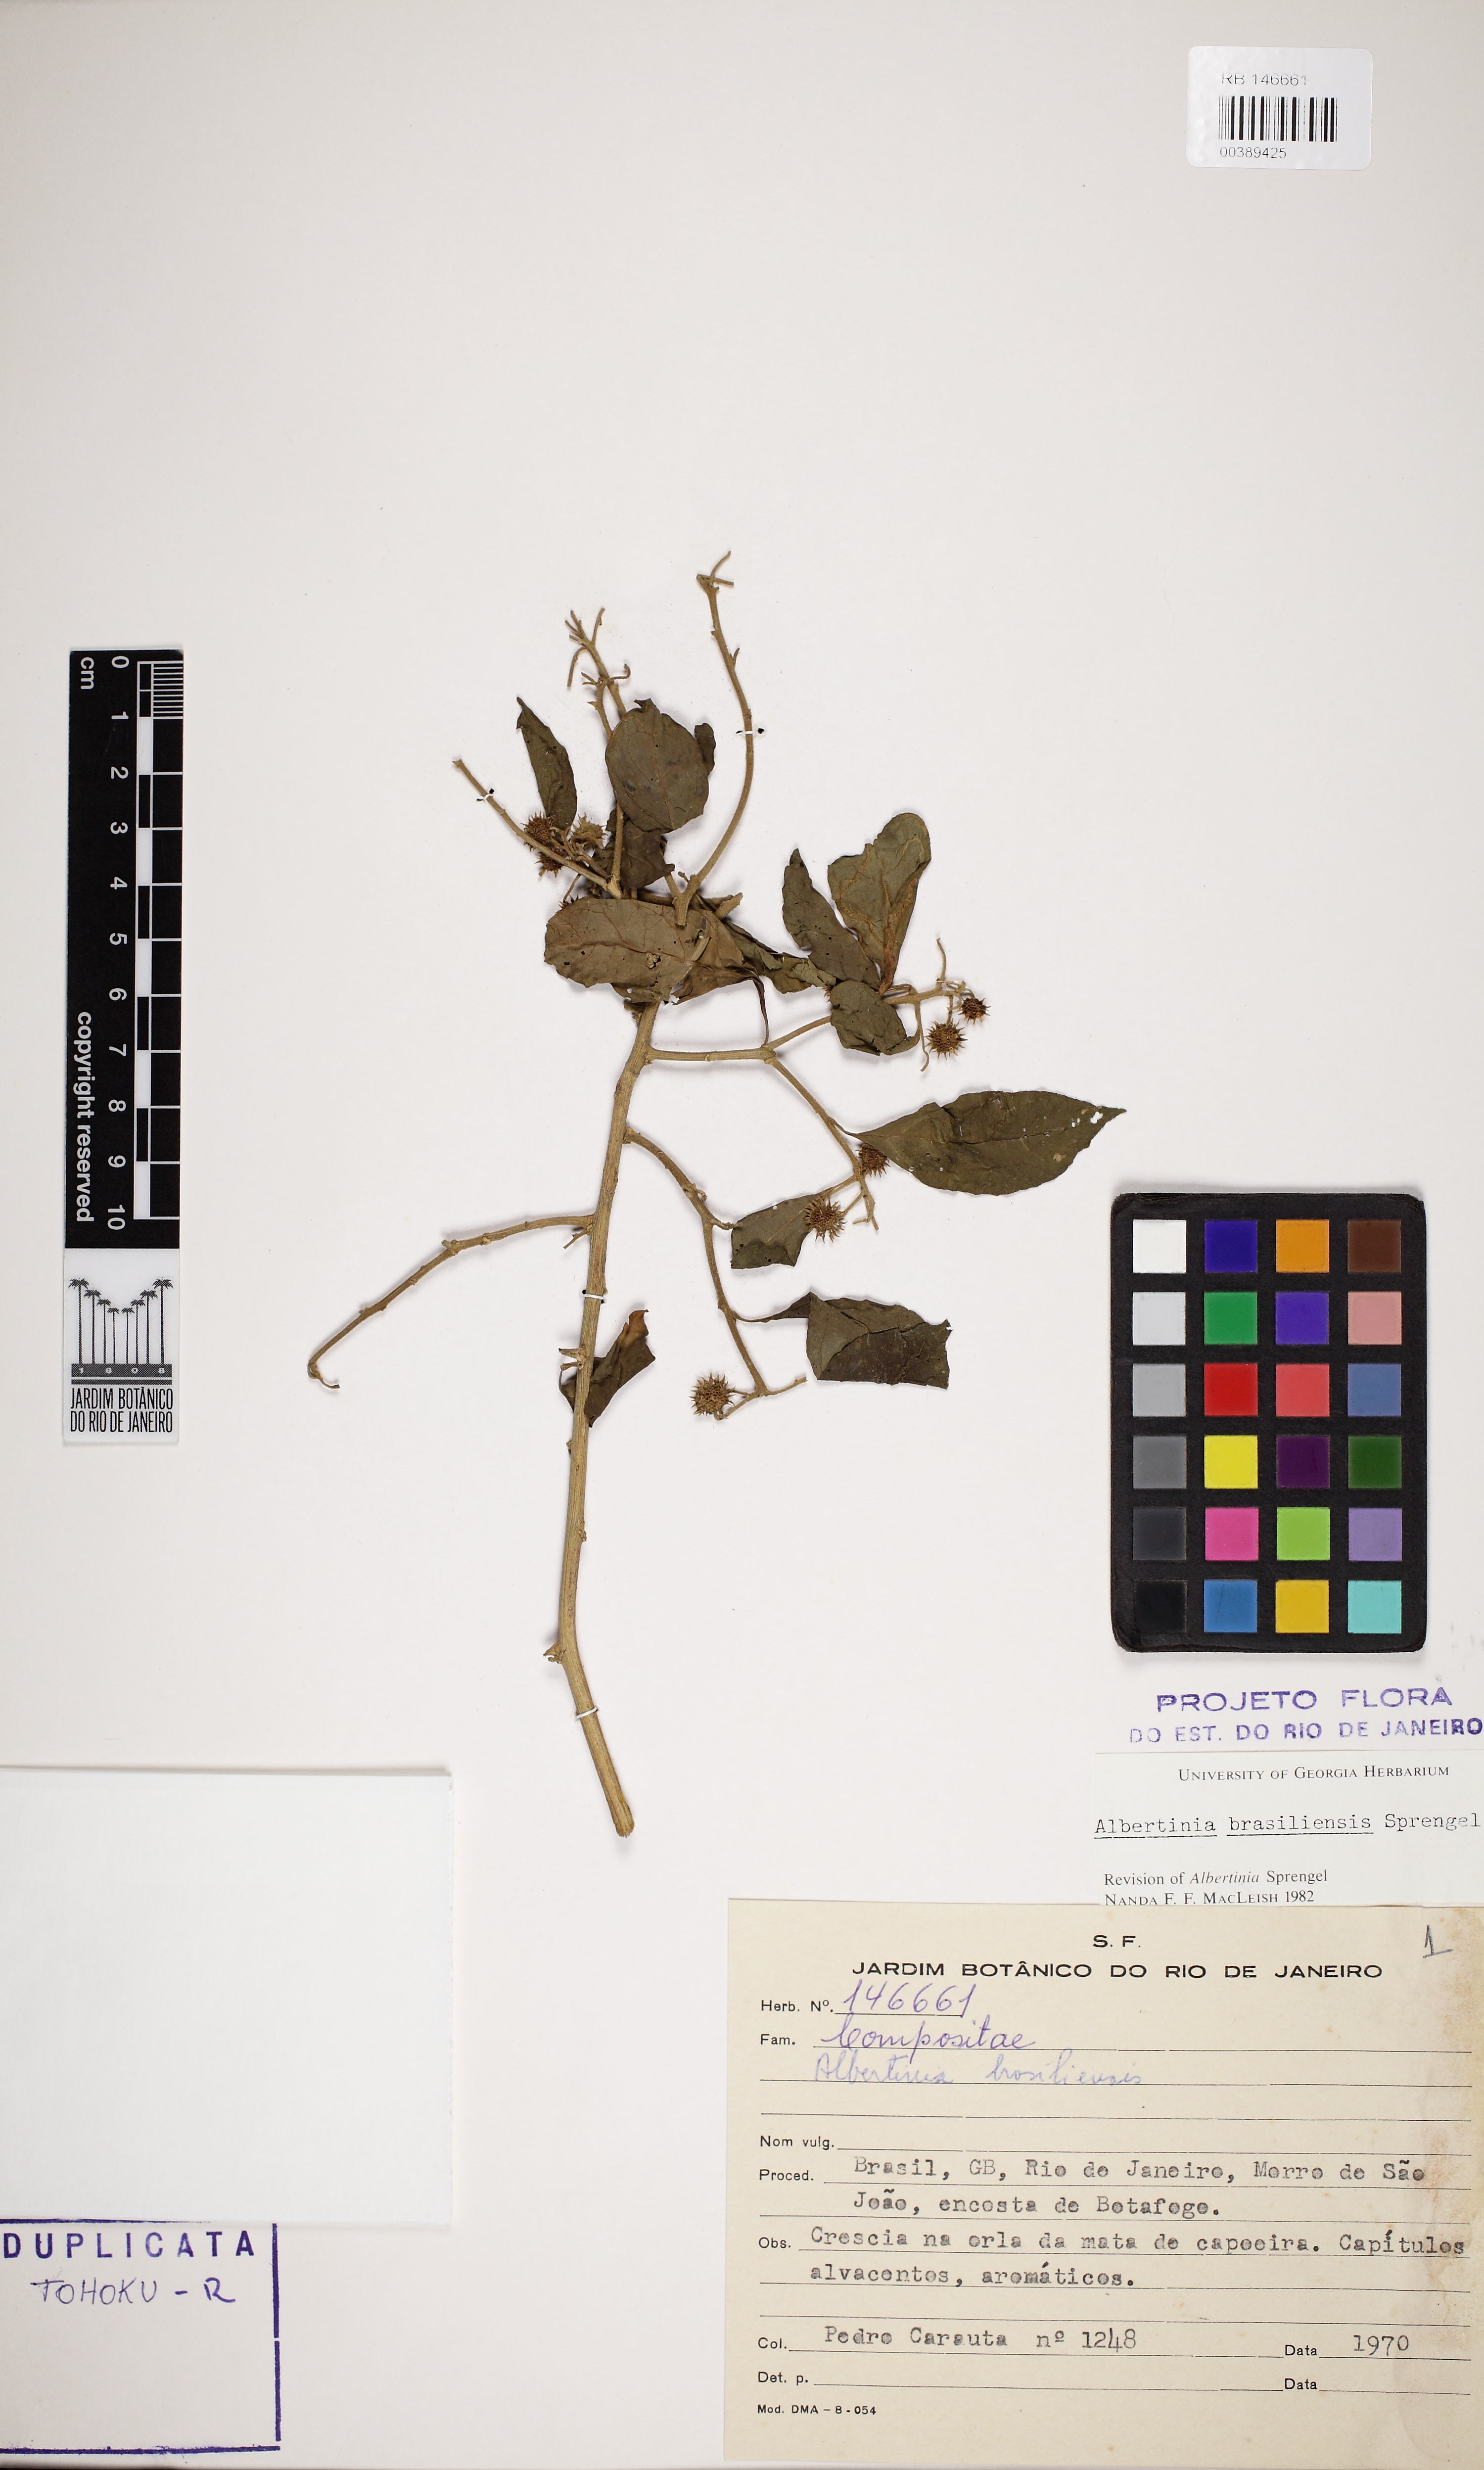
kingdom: Plantae
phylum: Tracheophyta
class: Magnoliopsida
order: Asterales
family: Asteraceae
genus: Albertinia
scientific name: Albertinia brasiliensis
